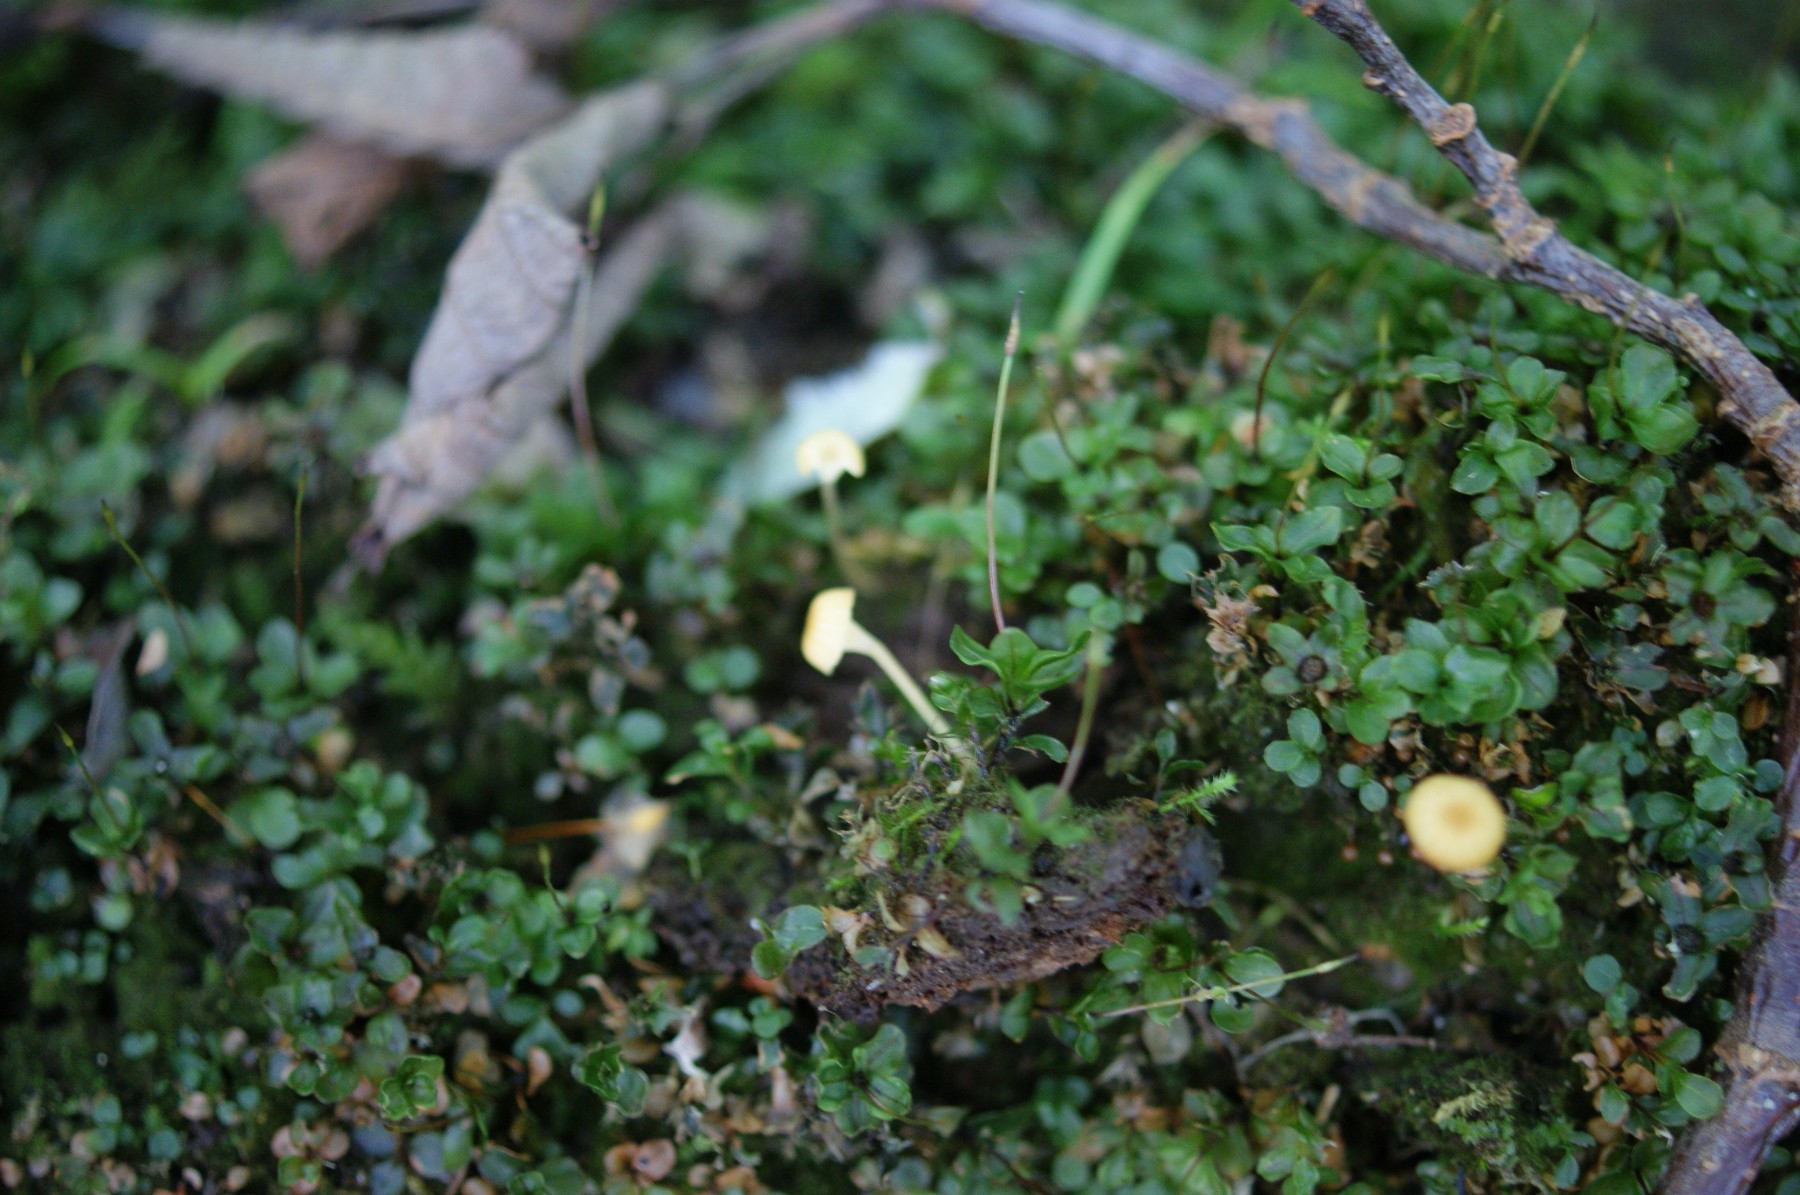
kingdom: Fungi
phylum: Basidiomycota
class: Agaricomycetes
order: Hymenochaetales
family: Rickenellaceae
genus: Rickenella
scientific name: Rickenella fibula
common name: orange mosnavlehat
